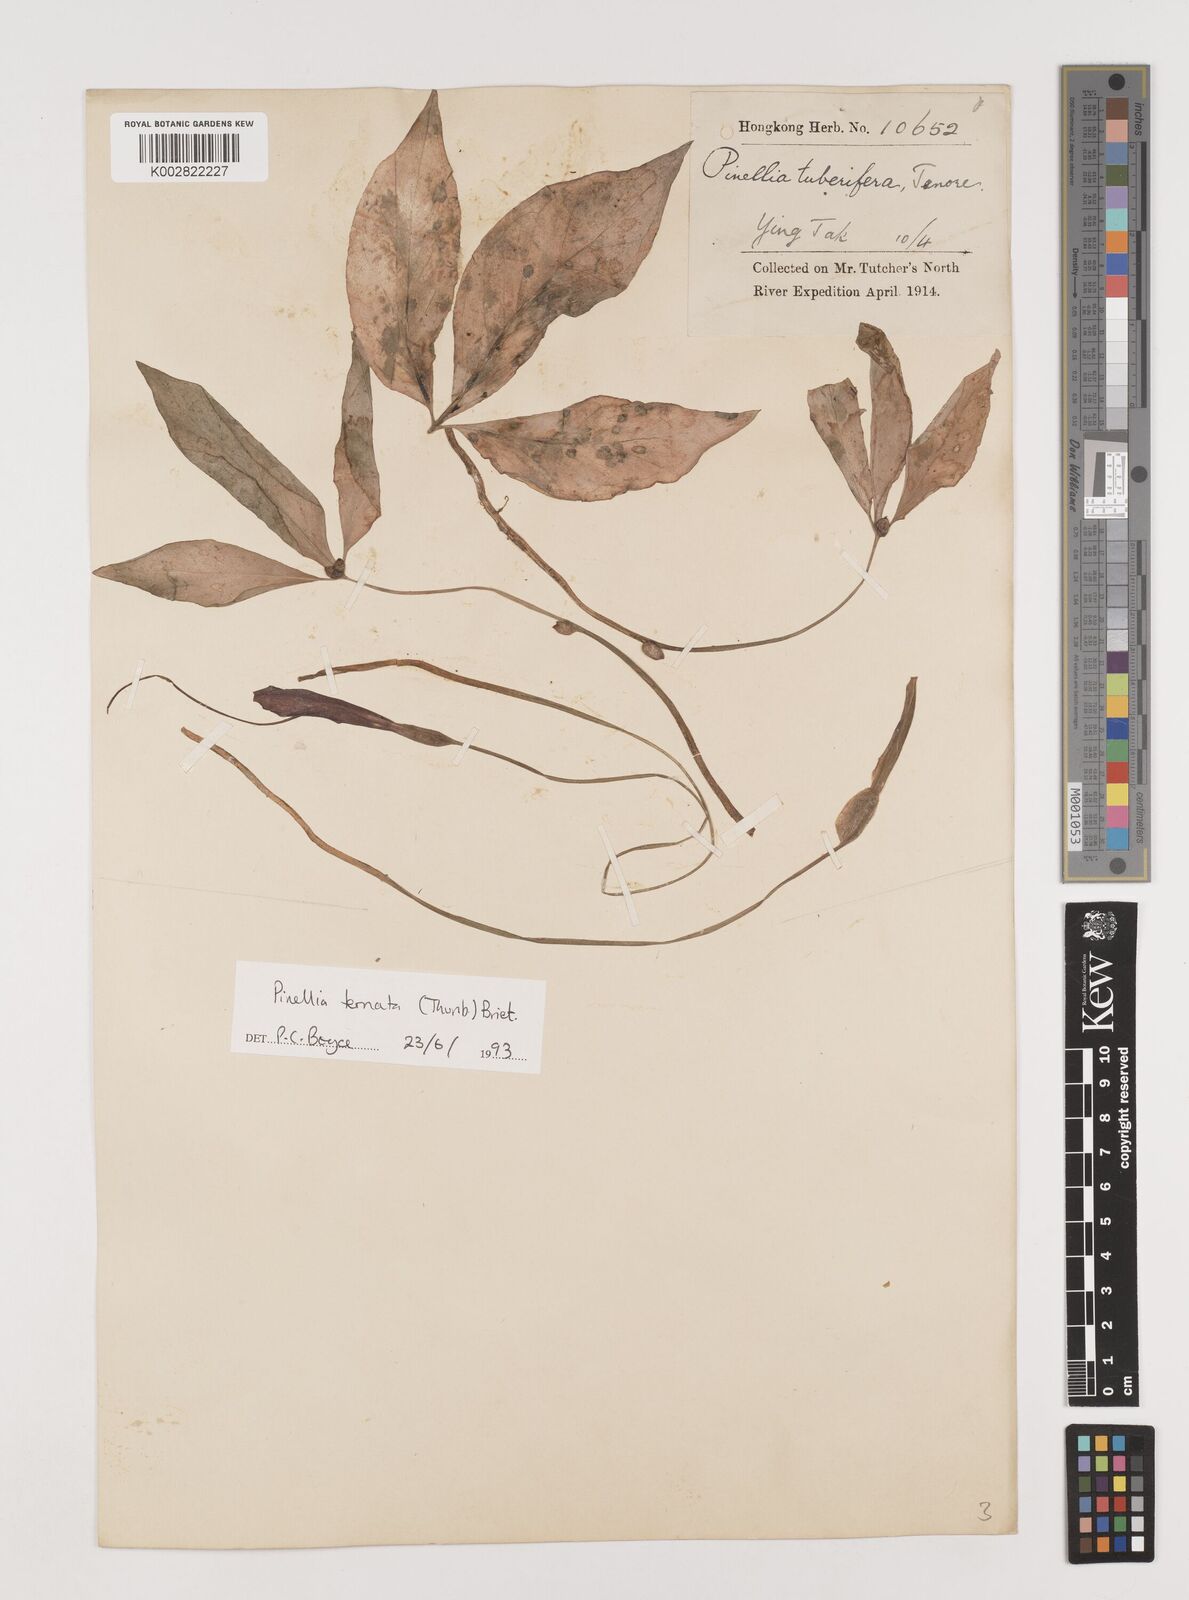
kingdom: Plantae
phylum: Tracheophyta
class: Liliopsida
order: Alismatales
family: Araceae
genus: Pinellia
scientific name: Pinellia ternata
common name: Pinellia
